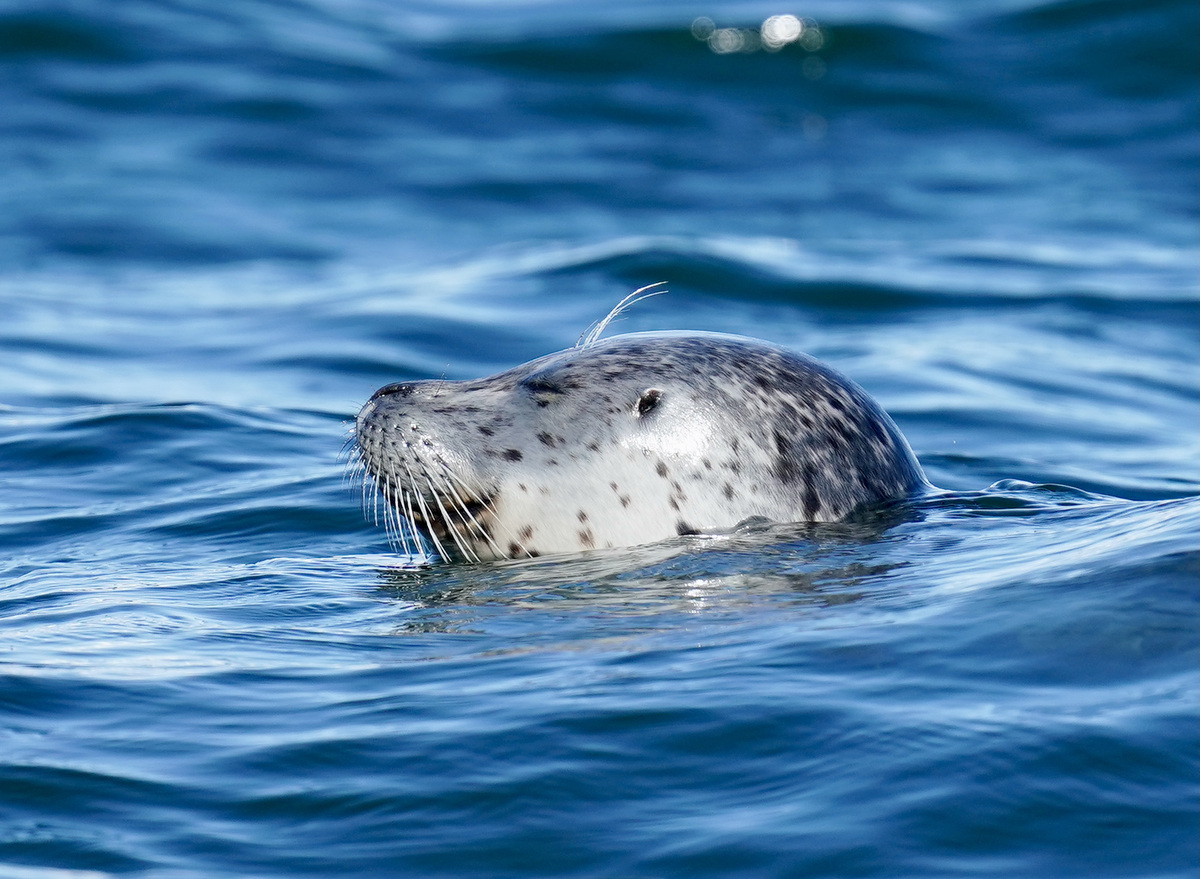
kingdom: Animalia
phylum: Chordata
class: Mammalia
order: Carnivora
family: Phocidae
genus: Phoca
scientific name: Phoca vitulina
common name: Harbor seal
